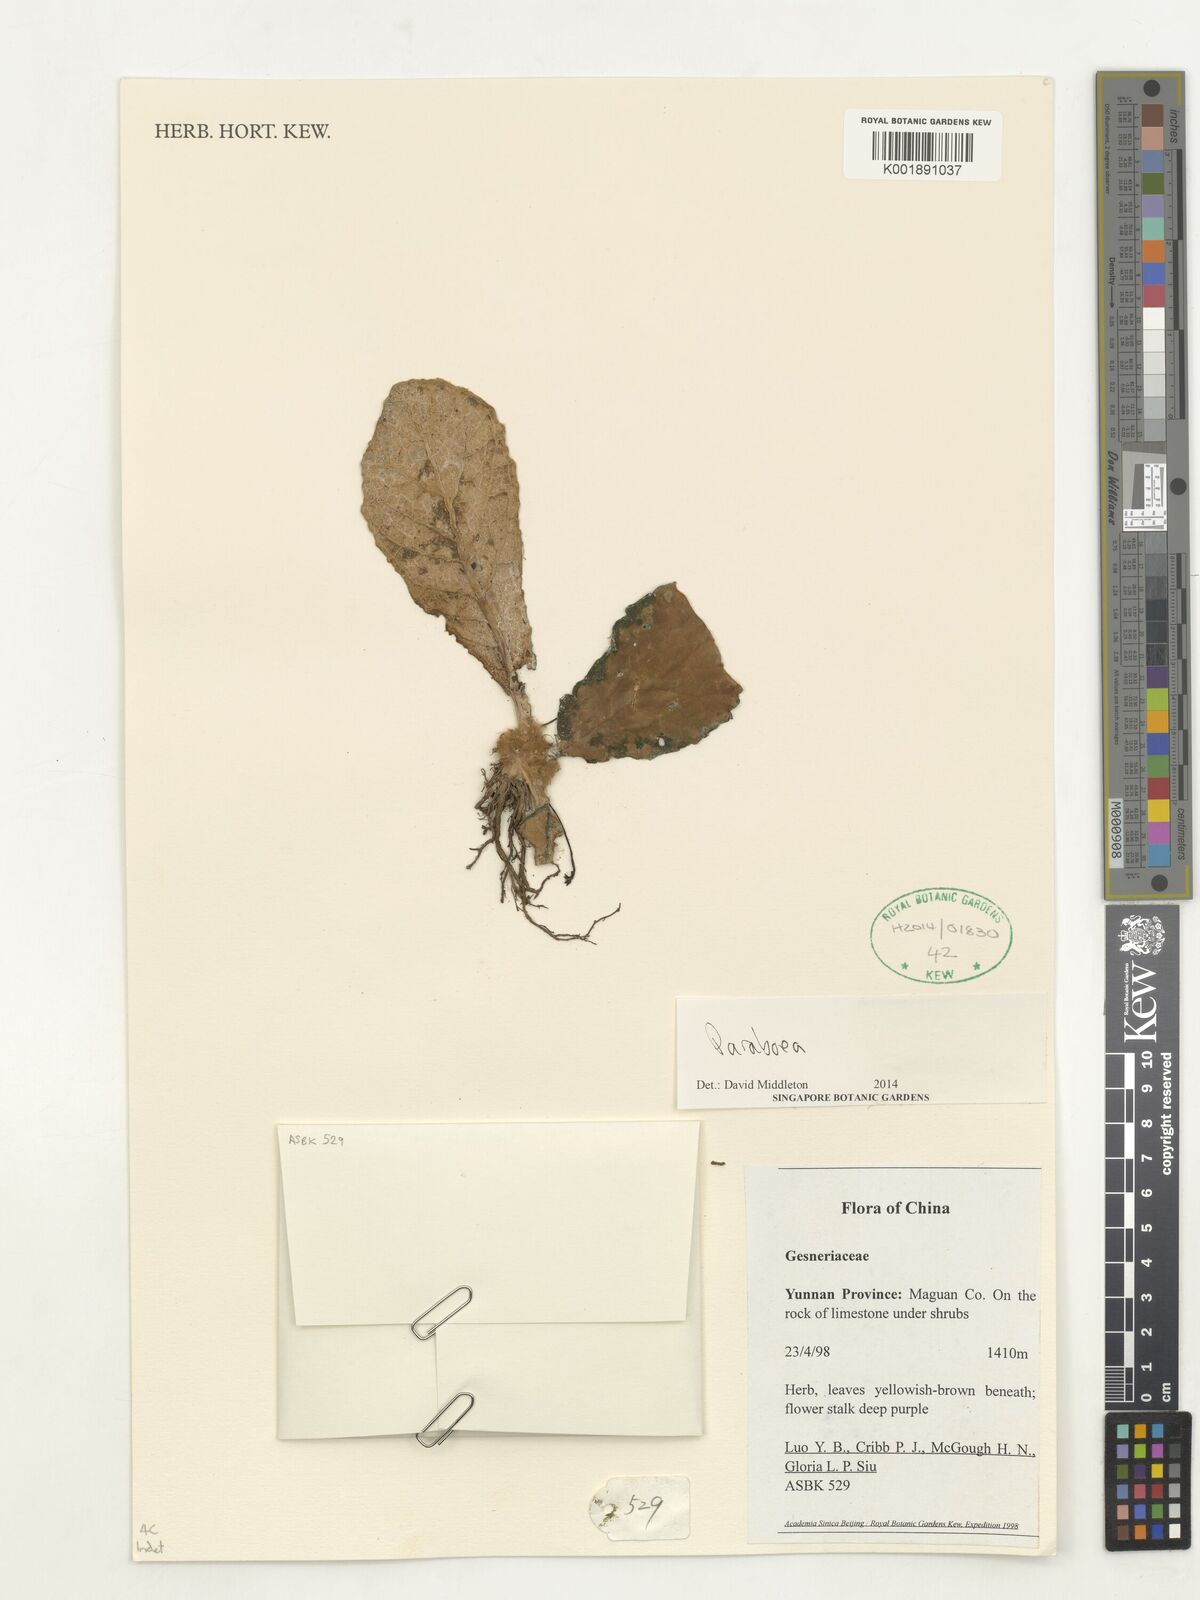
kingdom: Plantae
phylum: Tracheophyta
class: Magnoliopsida
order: Lamiales
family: Gesneriaceae
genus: Paraboea
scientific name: Paraboea
